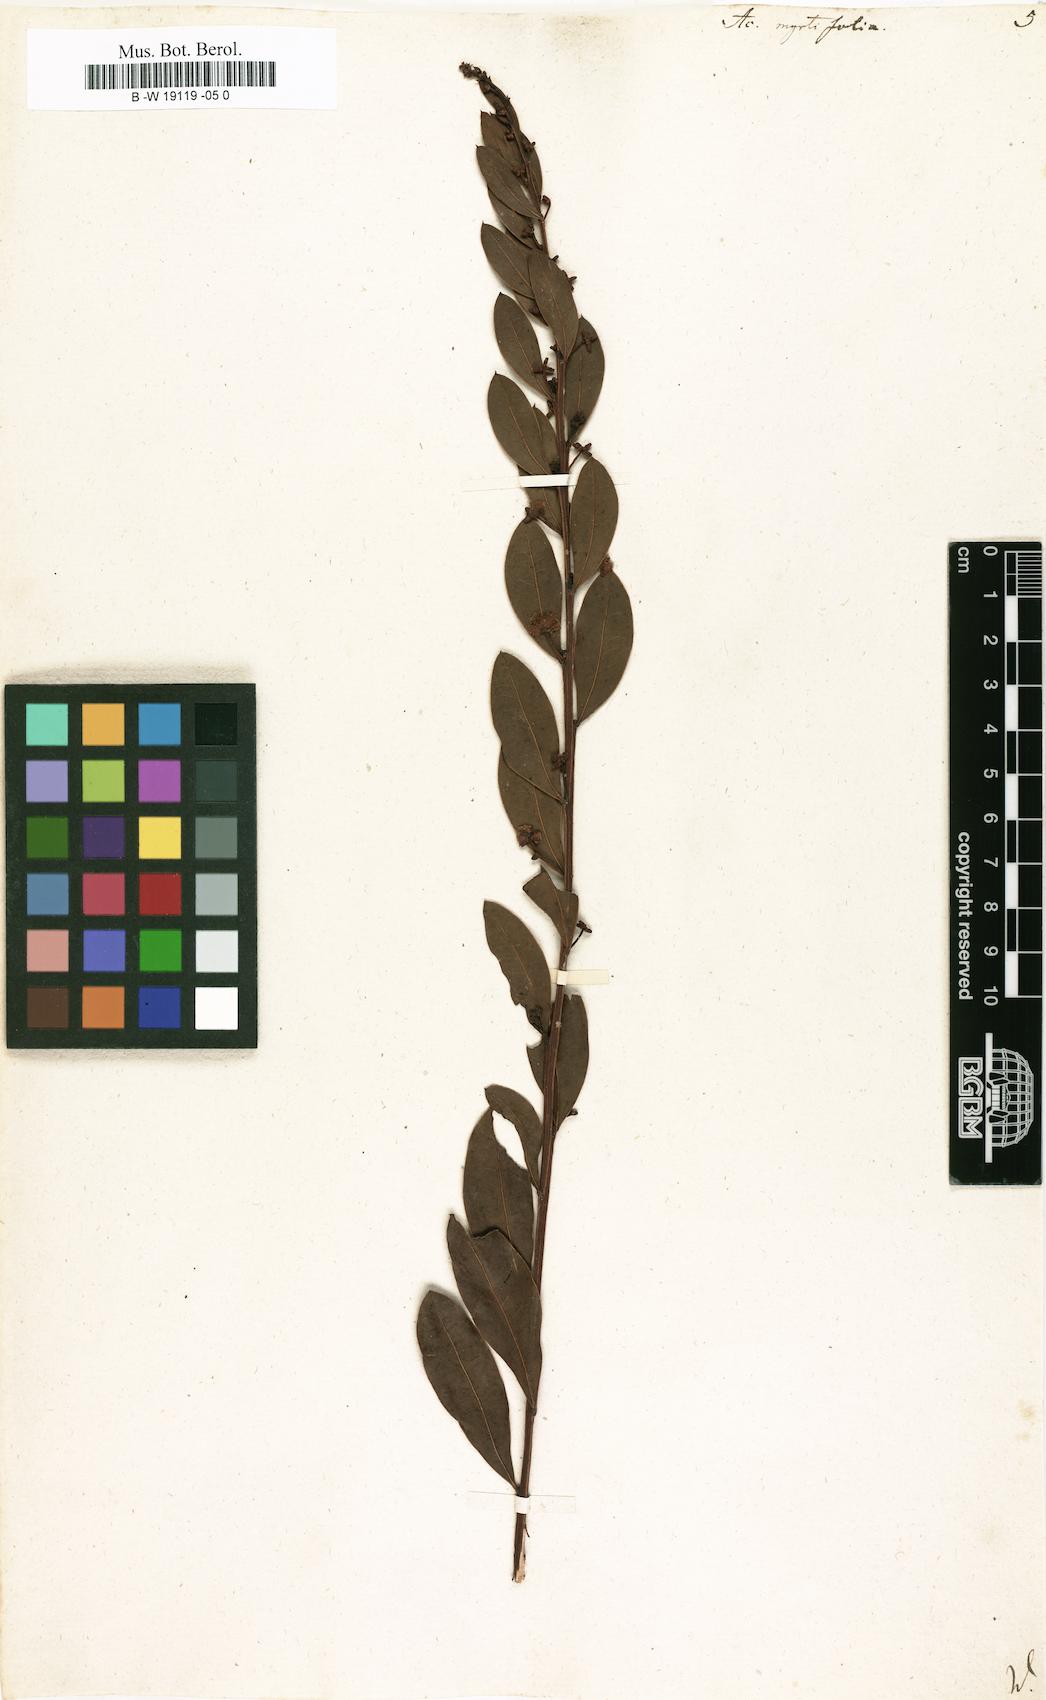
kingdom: Plantae
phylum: Tracheophyta
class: Magnoliopsida
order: Fabales
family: Fabaceae
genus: Acacia
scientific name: Acacia myrtifolia
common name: Myrtle wattle
